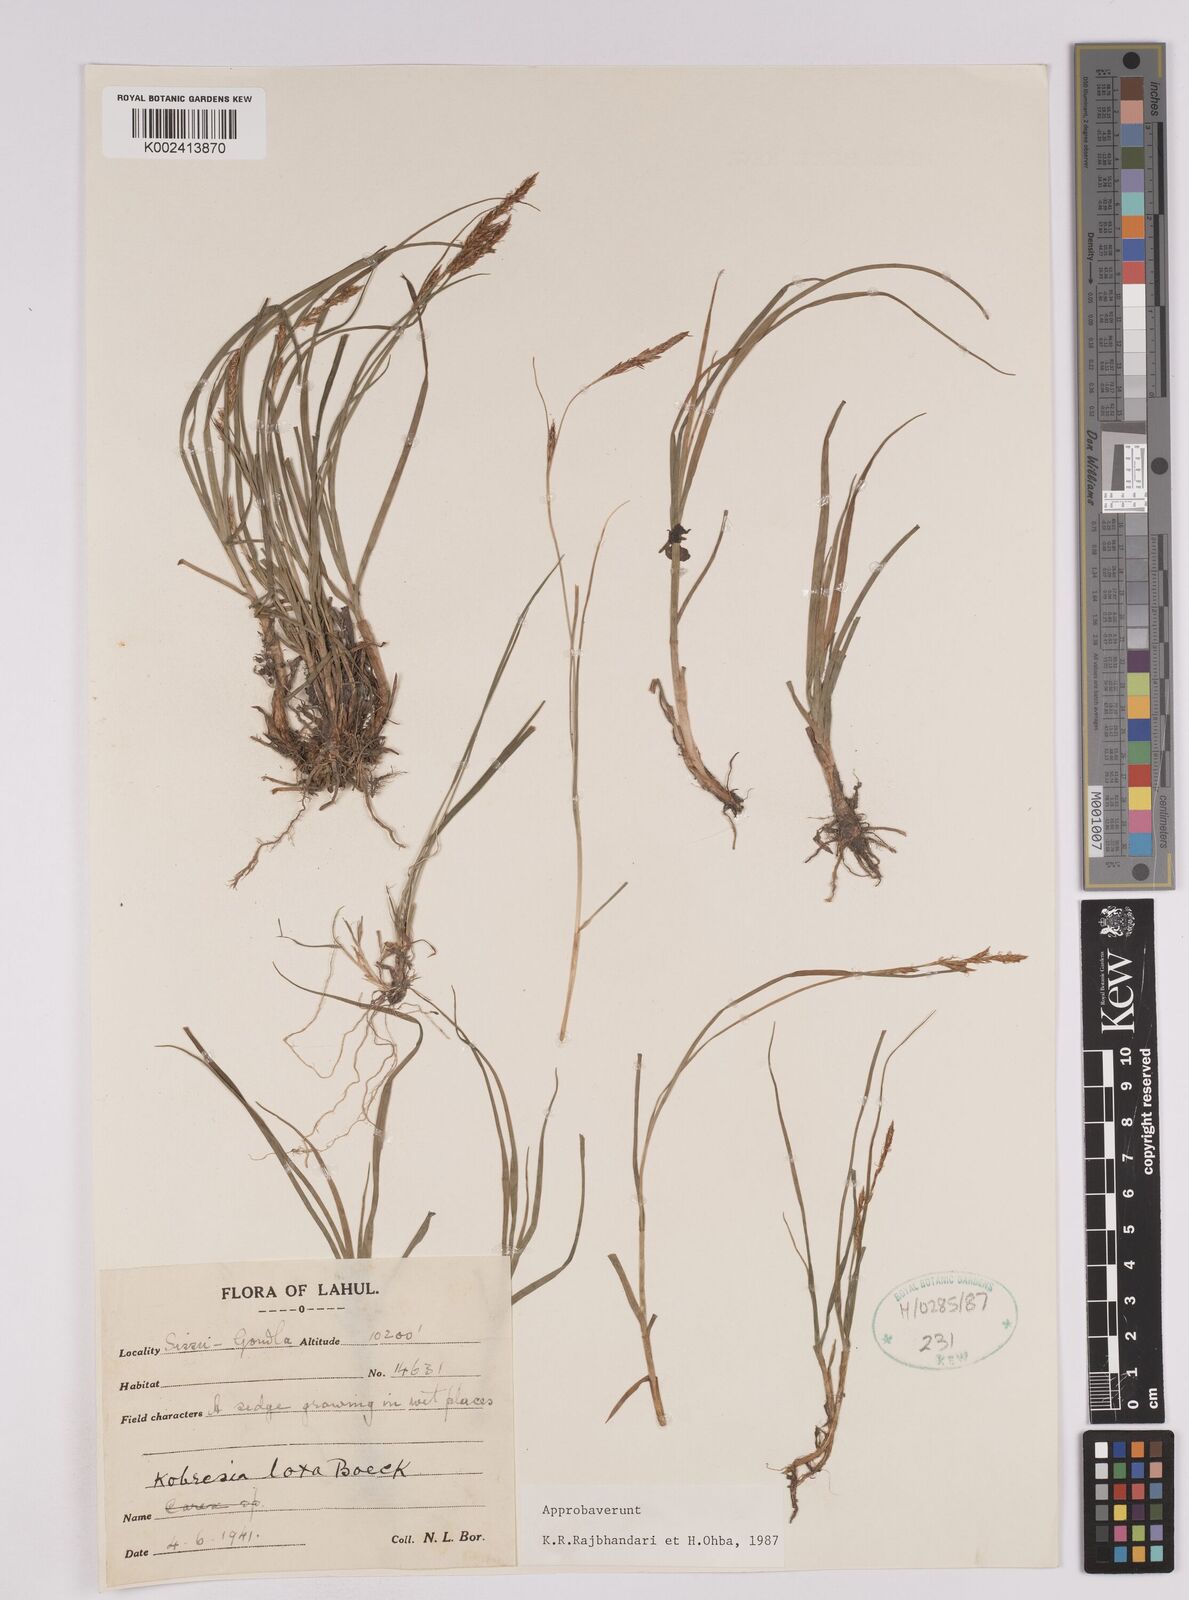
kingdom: Plantae
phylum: Tracheophyta
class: Liliopsida
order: Poales
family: Cyperaceae
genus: Carex
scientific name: Carex pseudolaxa
